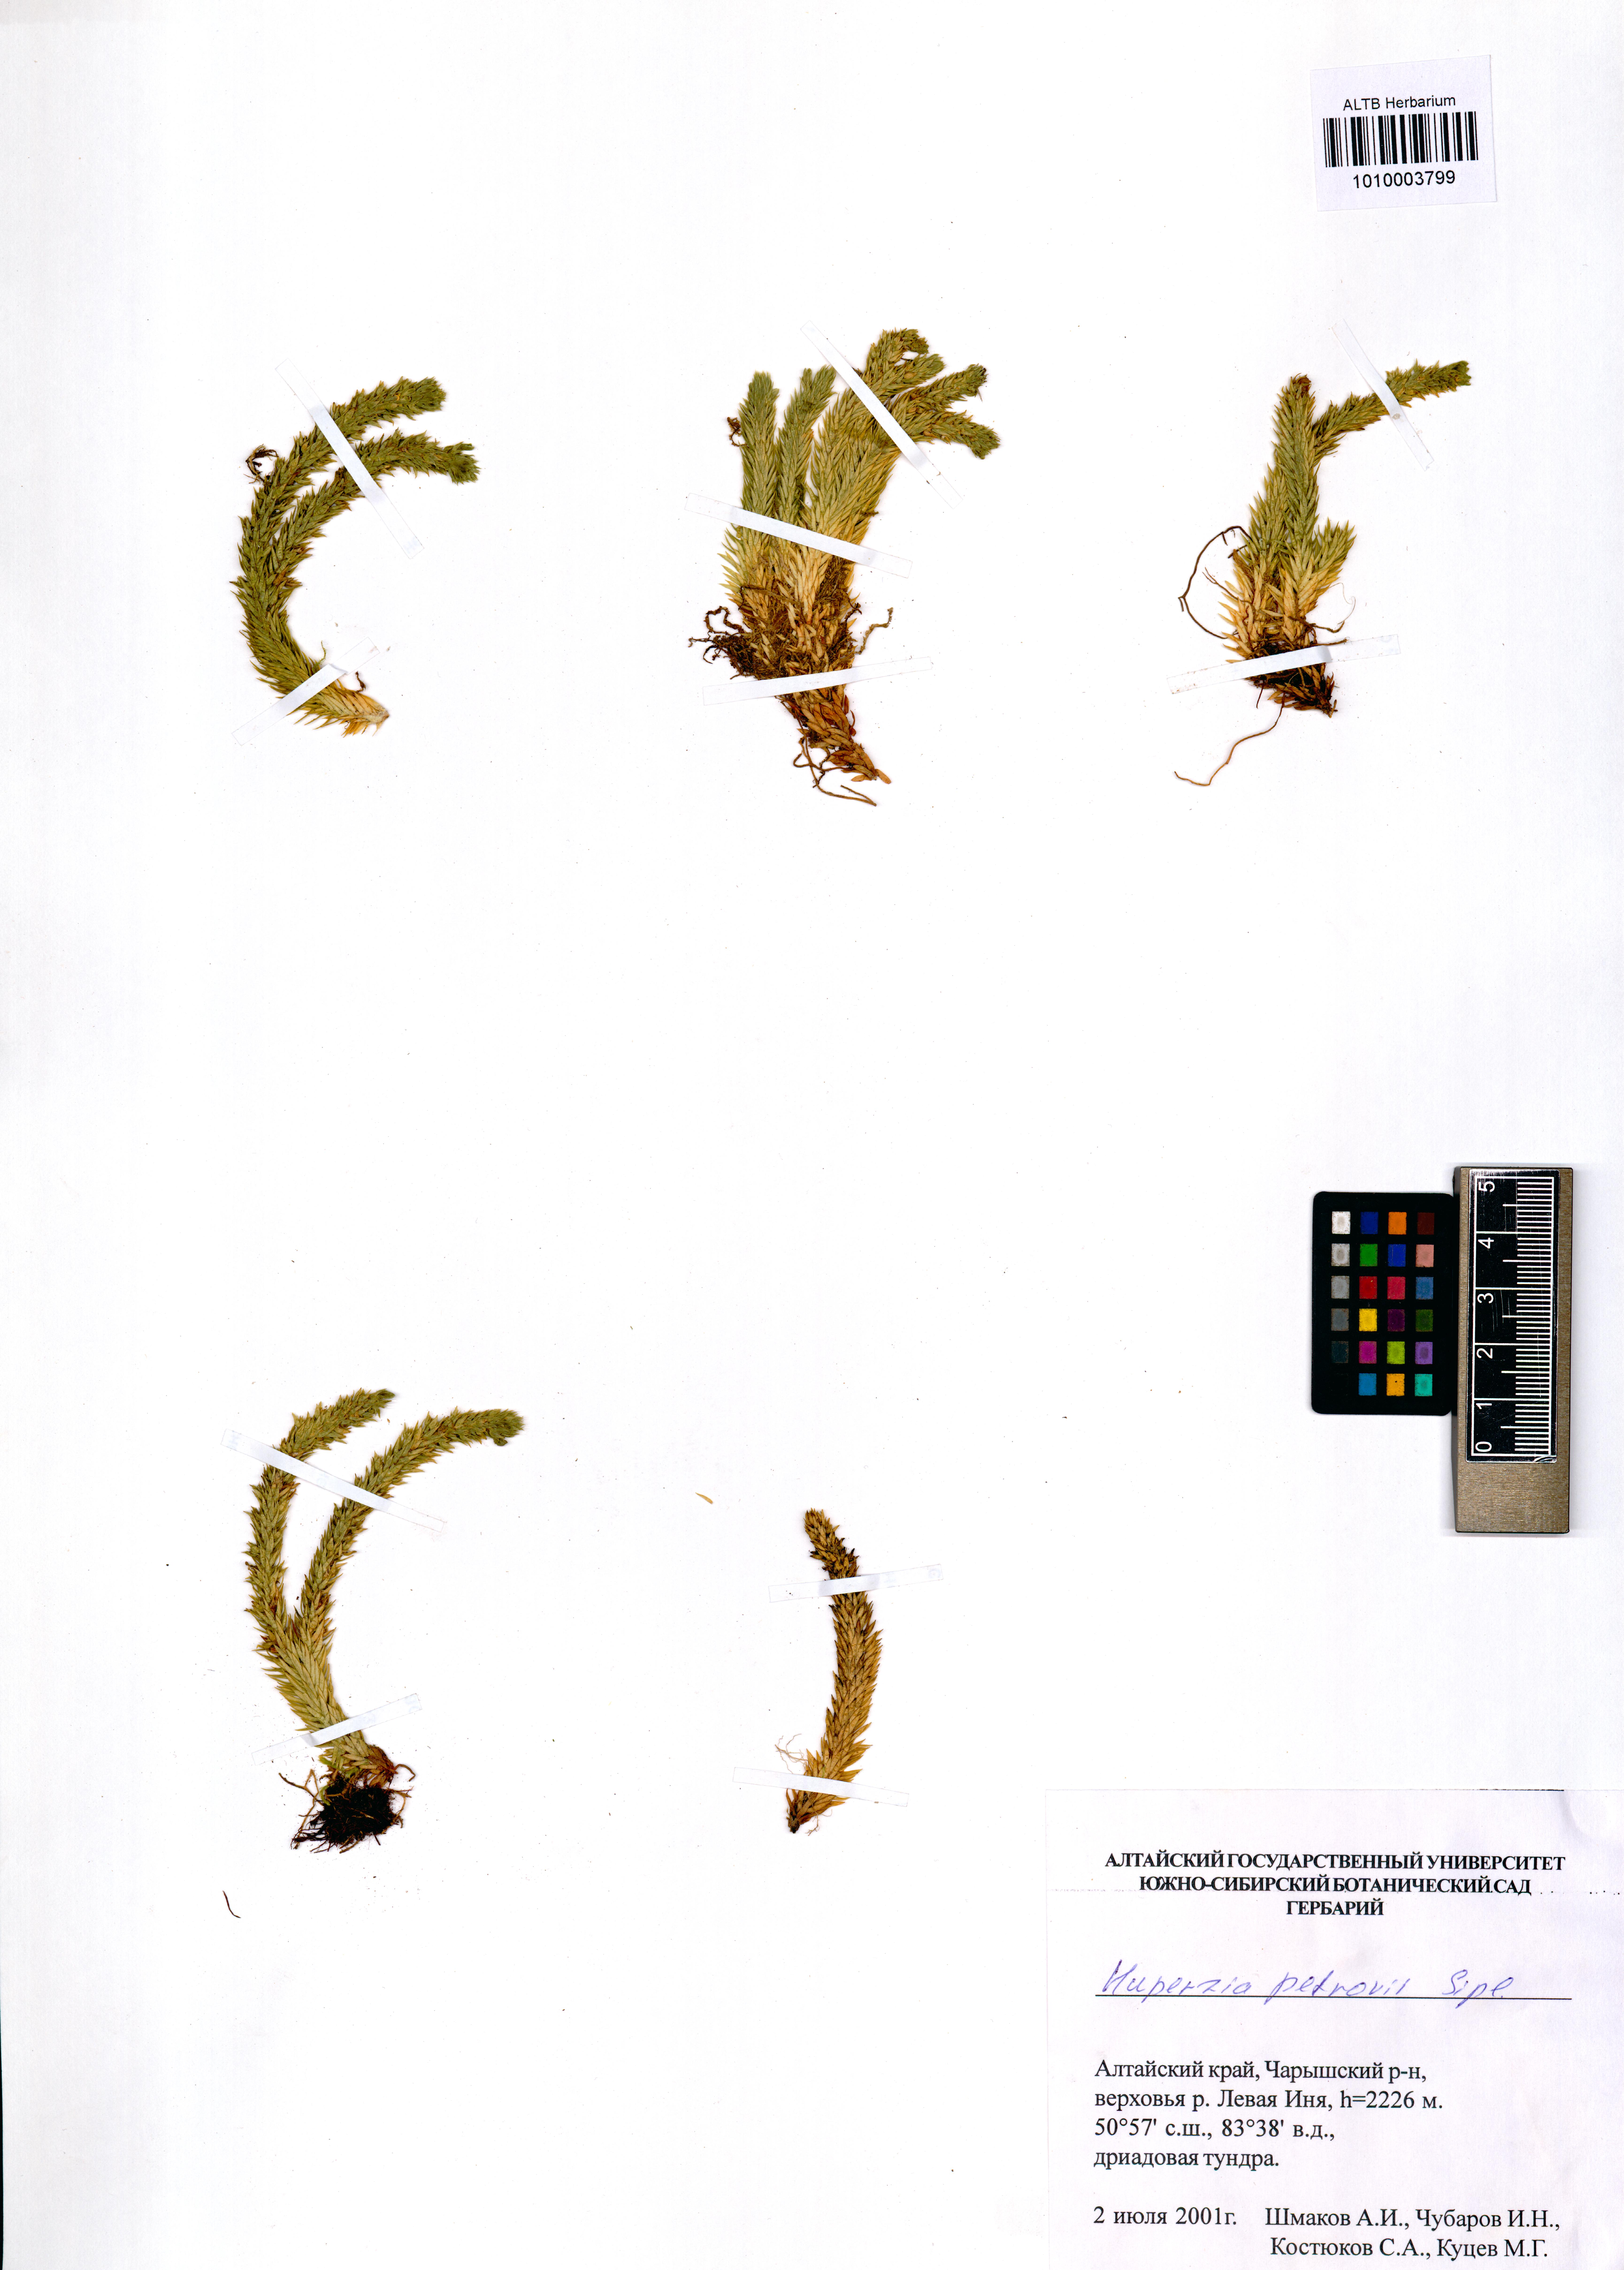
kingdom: Plantae
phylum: Tracheophyta
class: Lycopodiopsida
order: Lycopodiales
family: Lycopodiaceae
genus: Huperzia
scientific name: Huperzia selago
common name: Northern firmoss
